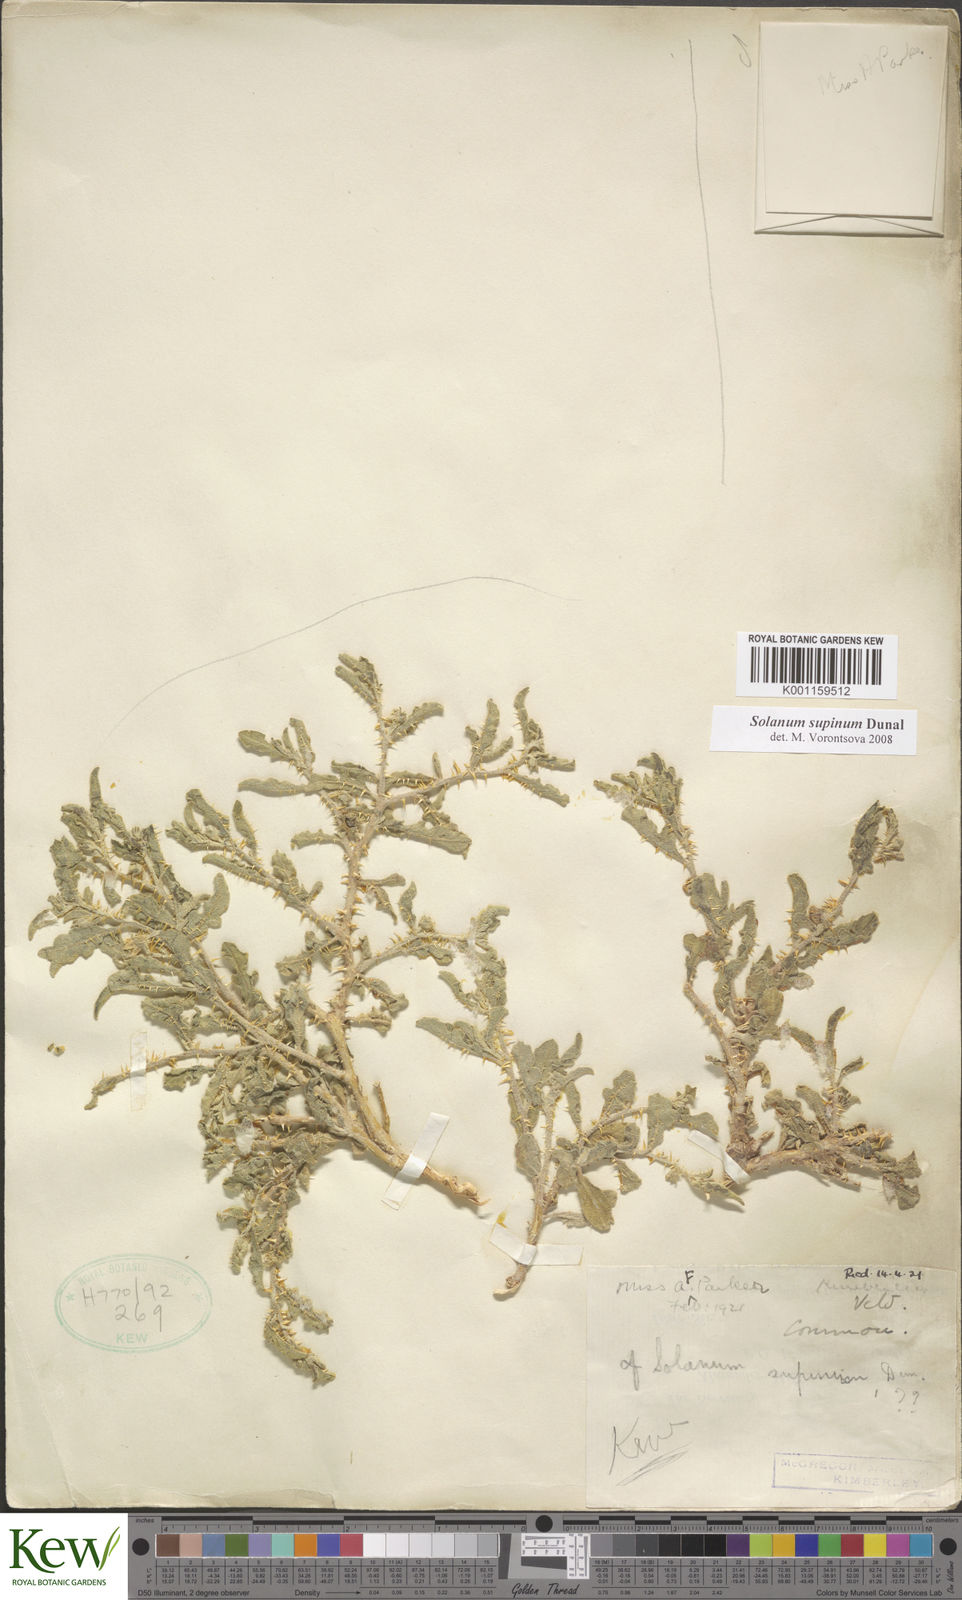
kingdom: Plantae
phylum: Tracheophyta
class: Magnoliopsida
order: Solanales
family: Solanaceae
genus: Solanum
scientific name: Solanum supinum
